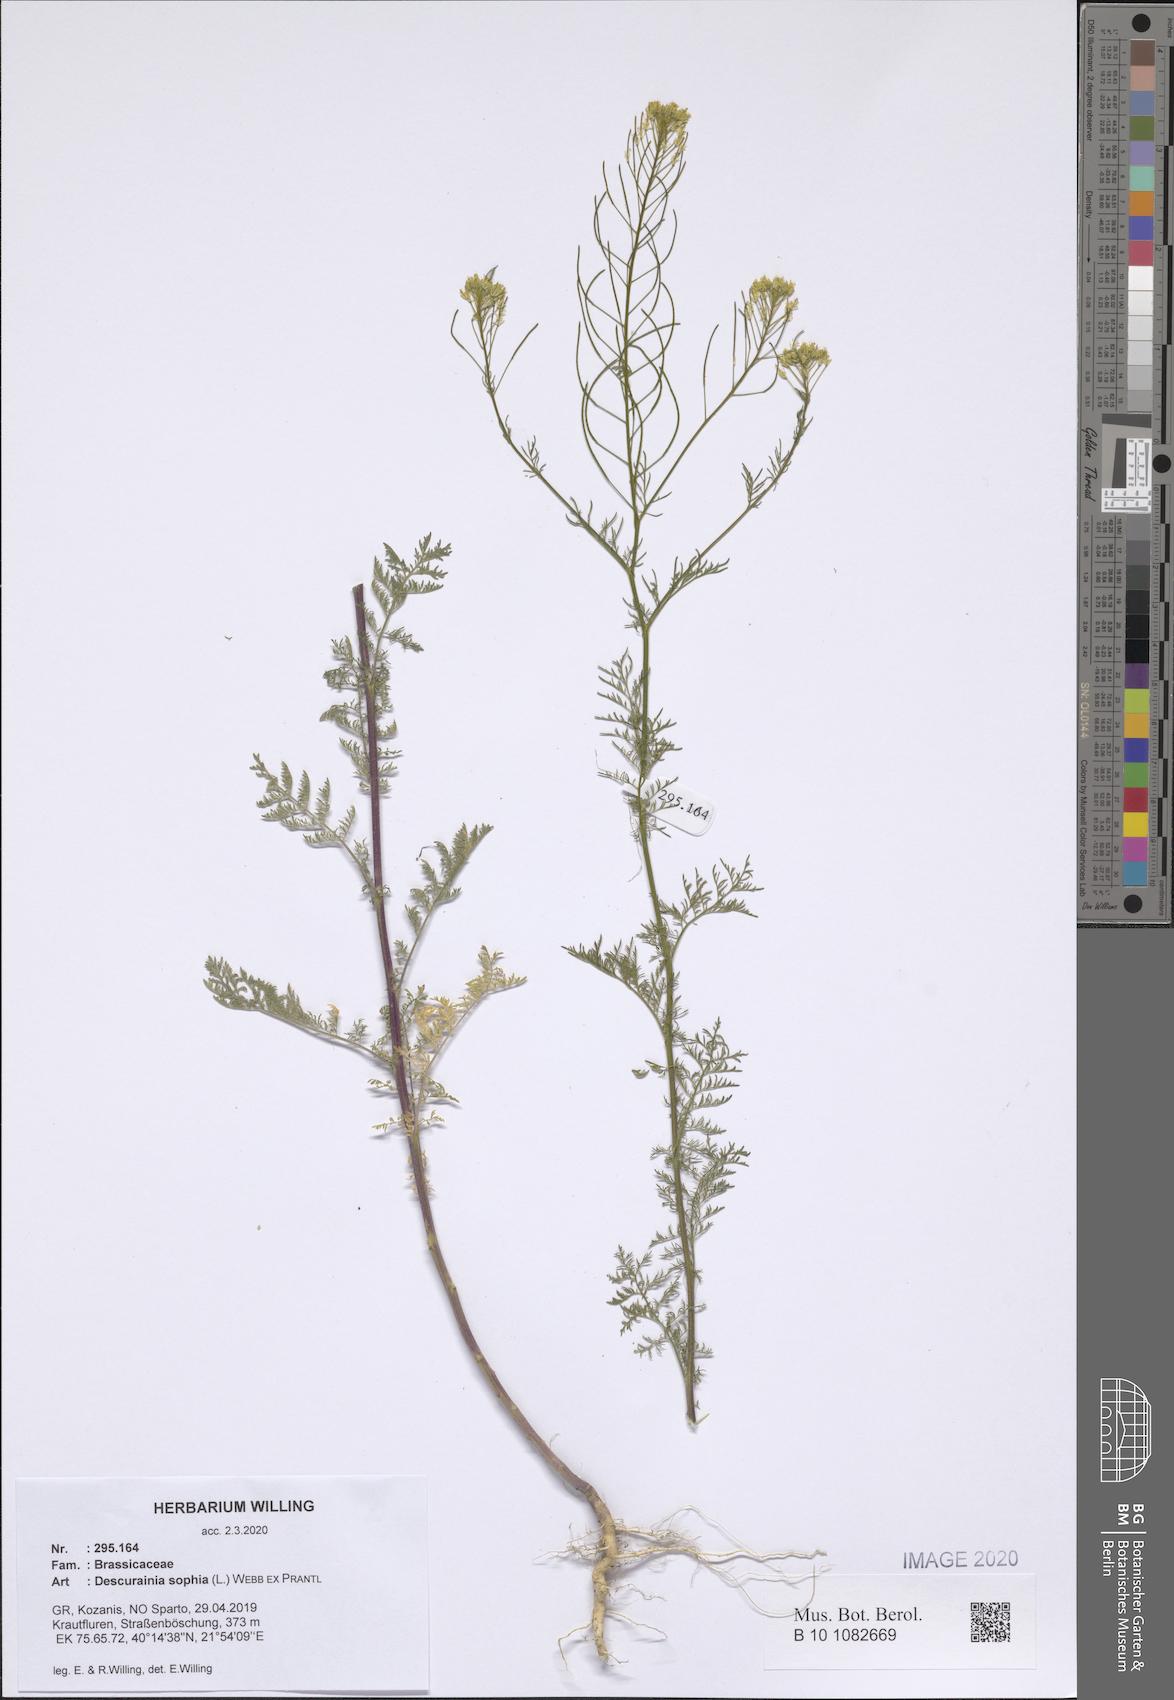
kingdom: Plantae
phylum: Tracheophyta
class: Magnoliopsida
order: Brassicales
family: Brassicaceae
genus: Descurainia
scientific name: Descurainia sophia
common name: Flixweed
